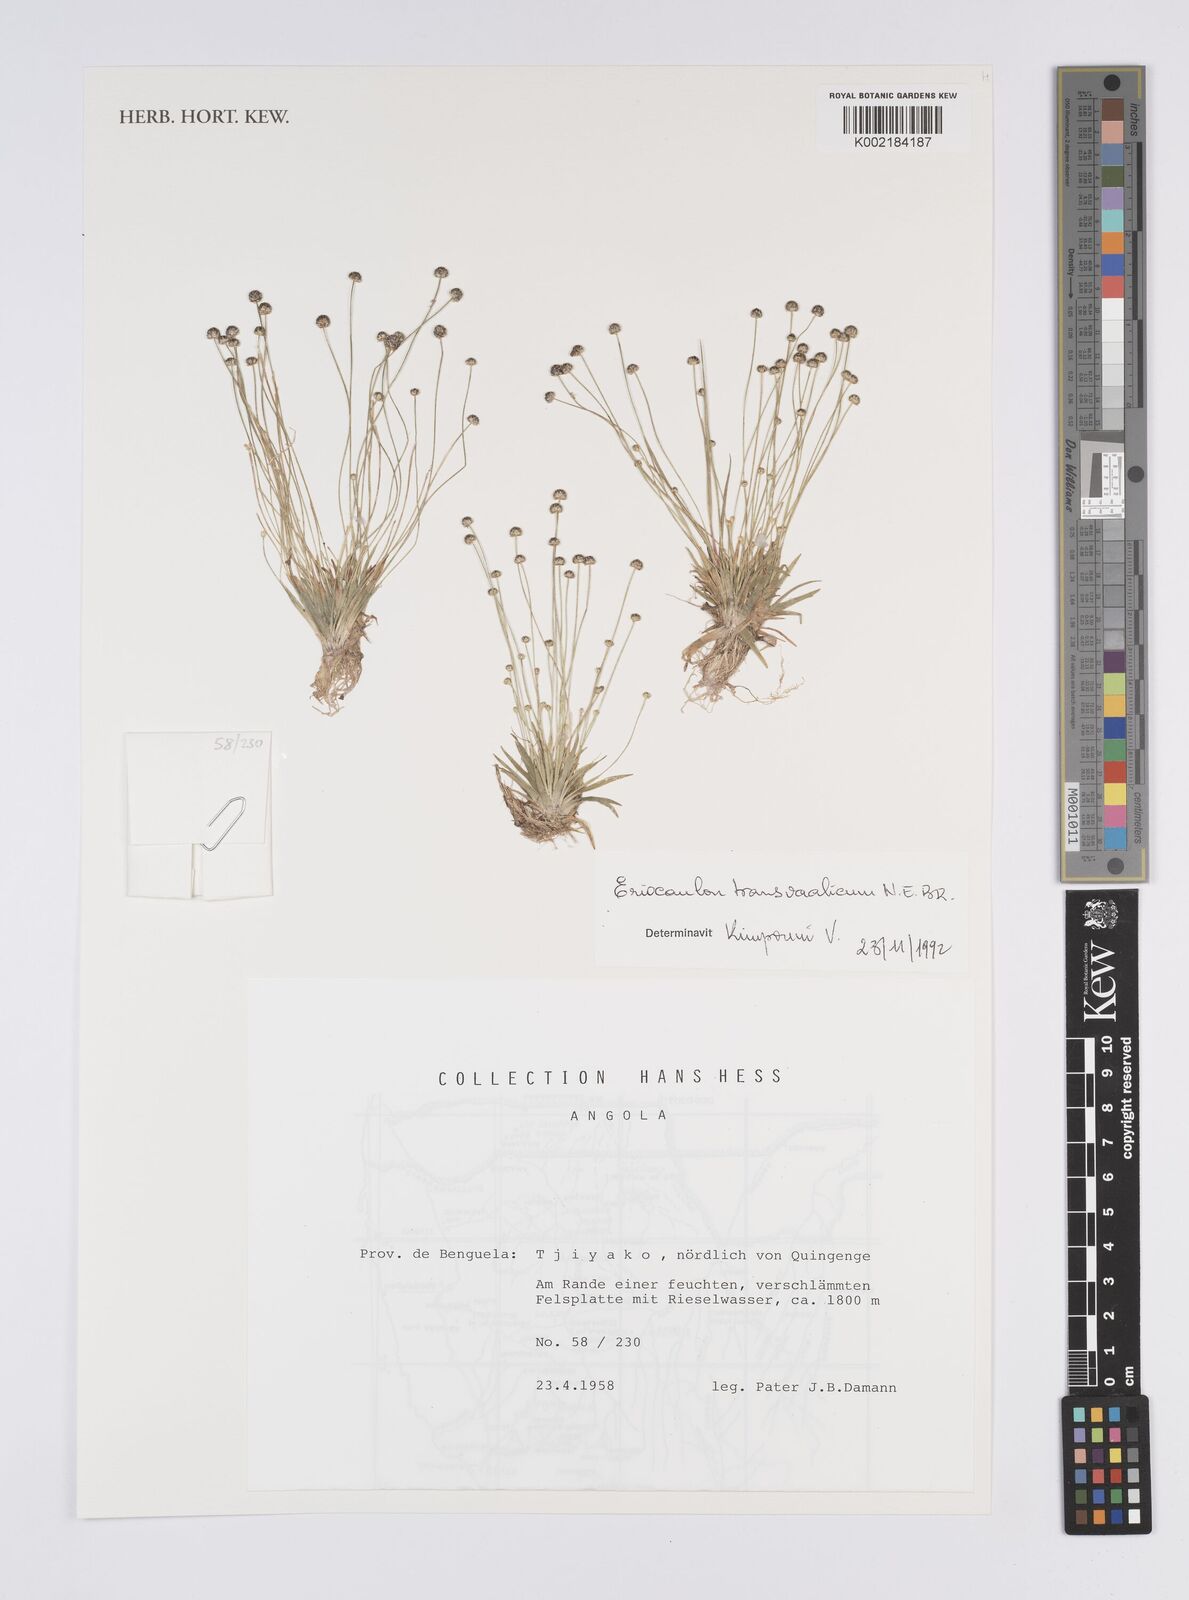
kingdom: Plantae
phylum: Tracheophyta
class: Liliopsida
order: Poales
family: Eriocaulaceae
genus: Eriocaulon
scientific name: Eriocaulon transvaalicum
